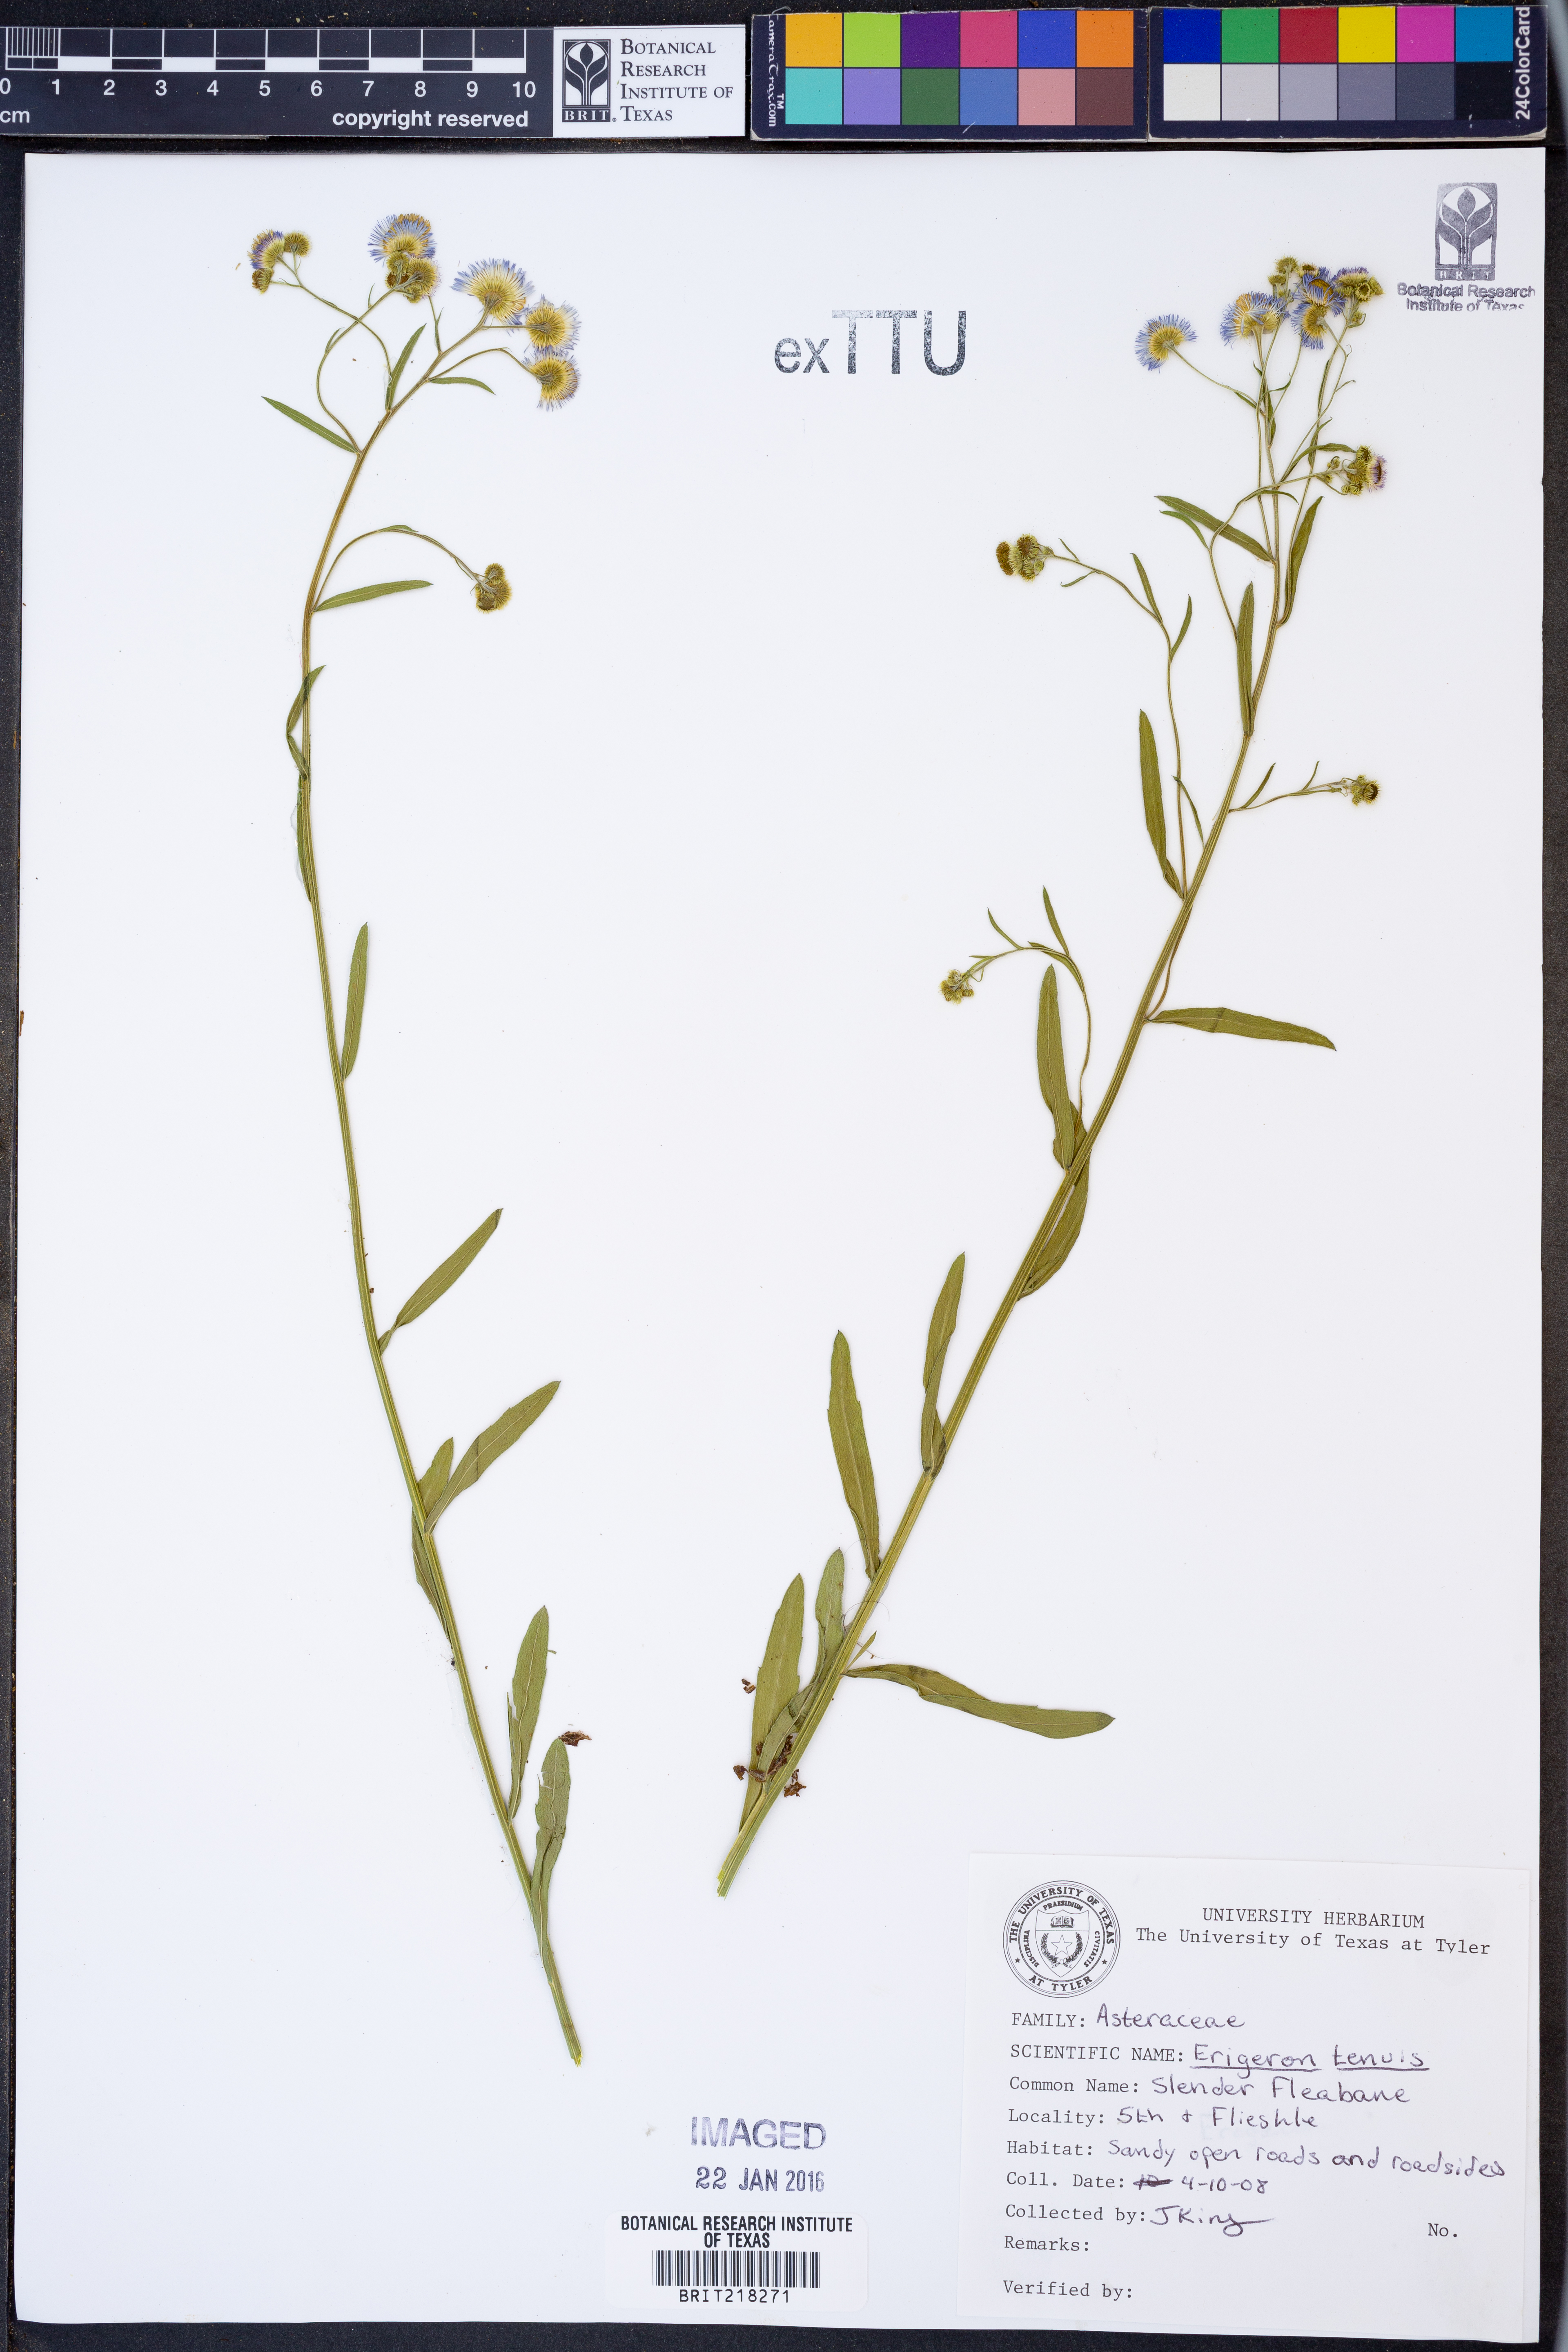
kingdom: Plantae
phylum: Tracheophyta
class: Magnoliopsida
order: Asterales
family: Asteraceae
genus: Erigeron
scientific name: Erigeron tenuis
